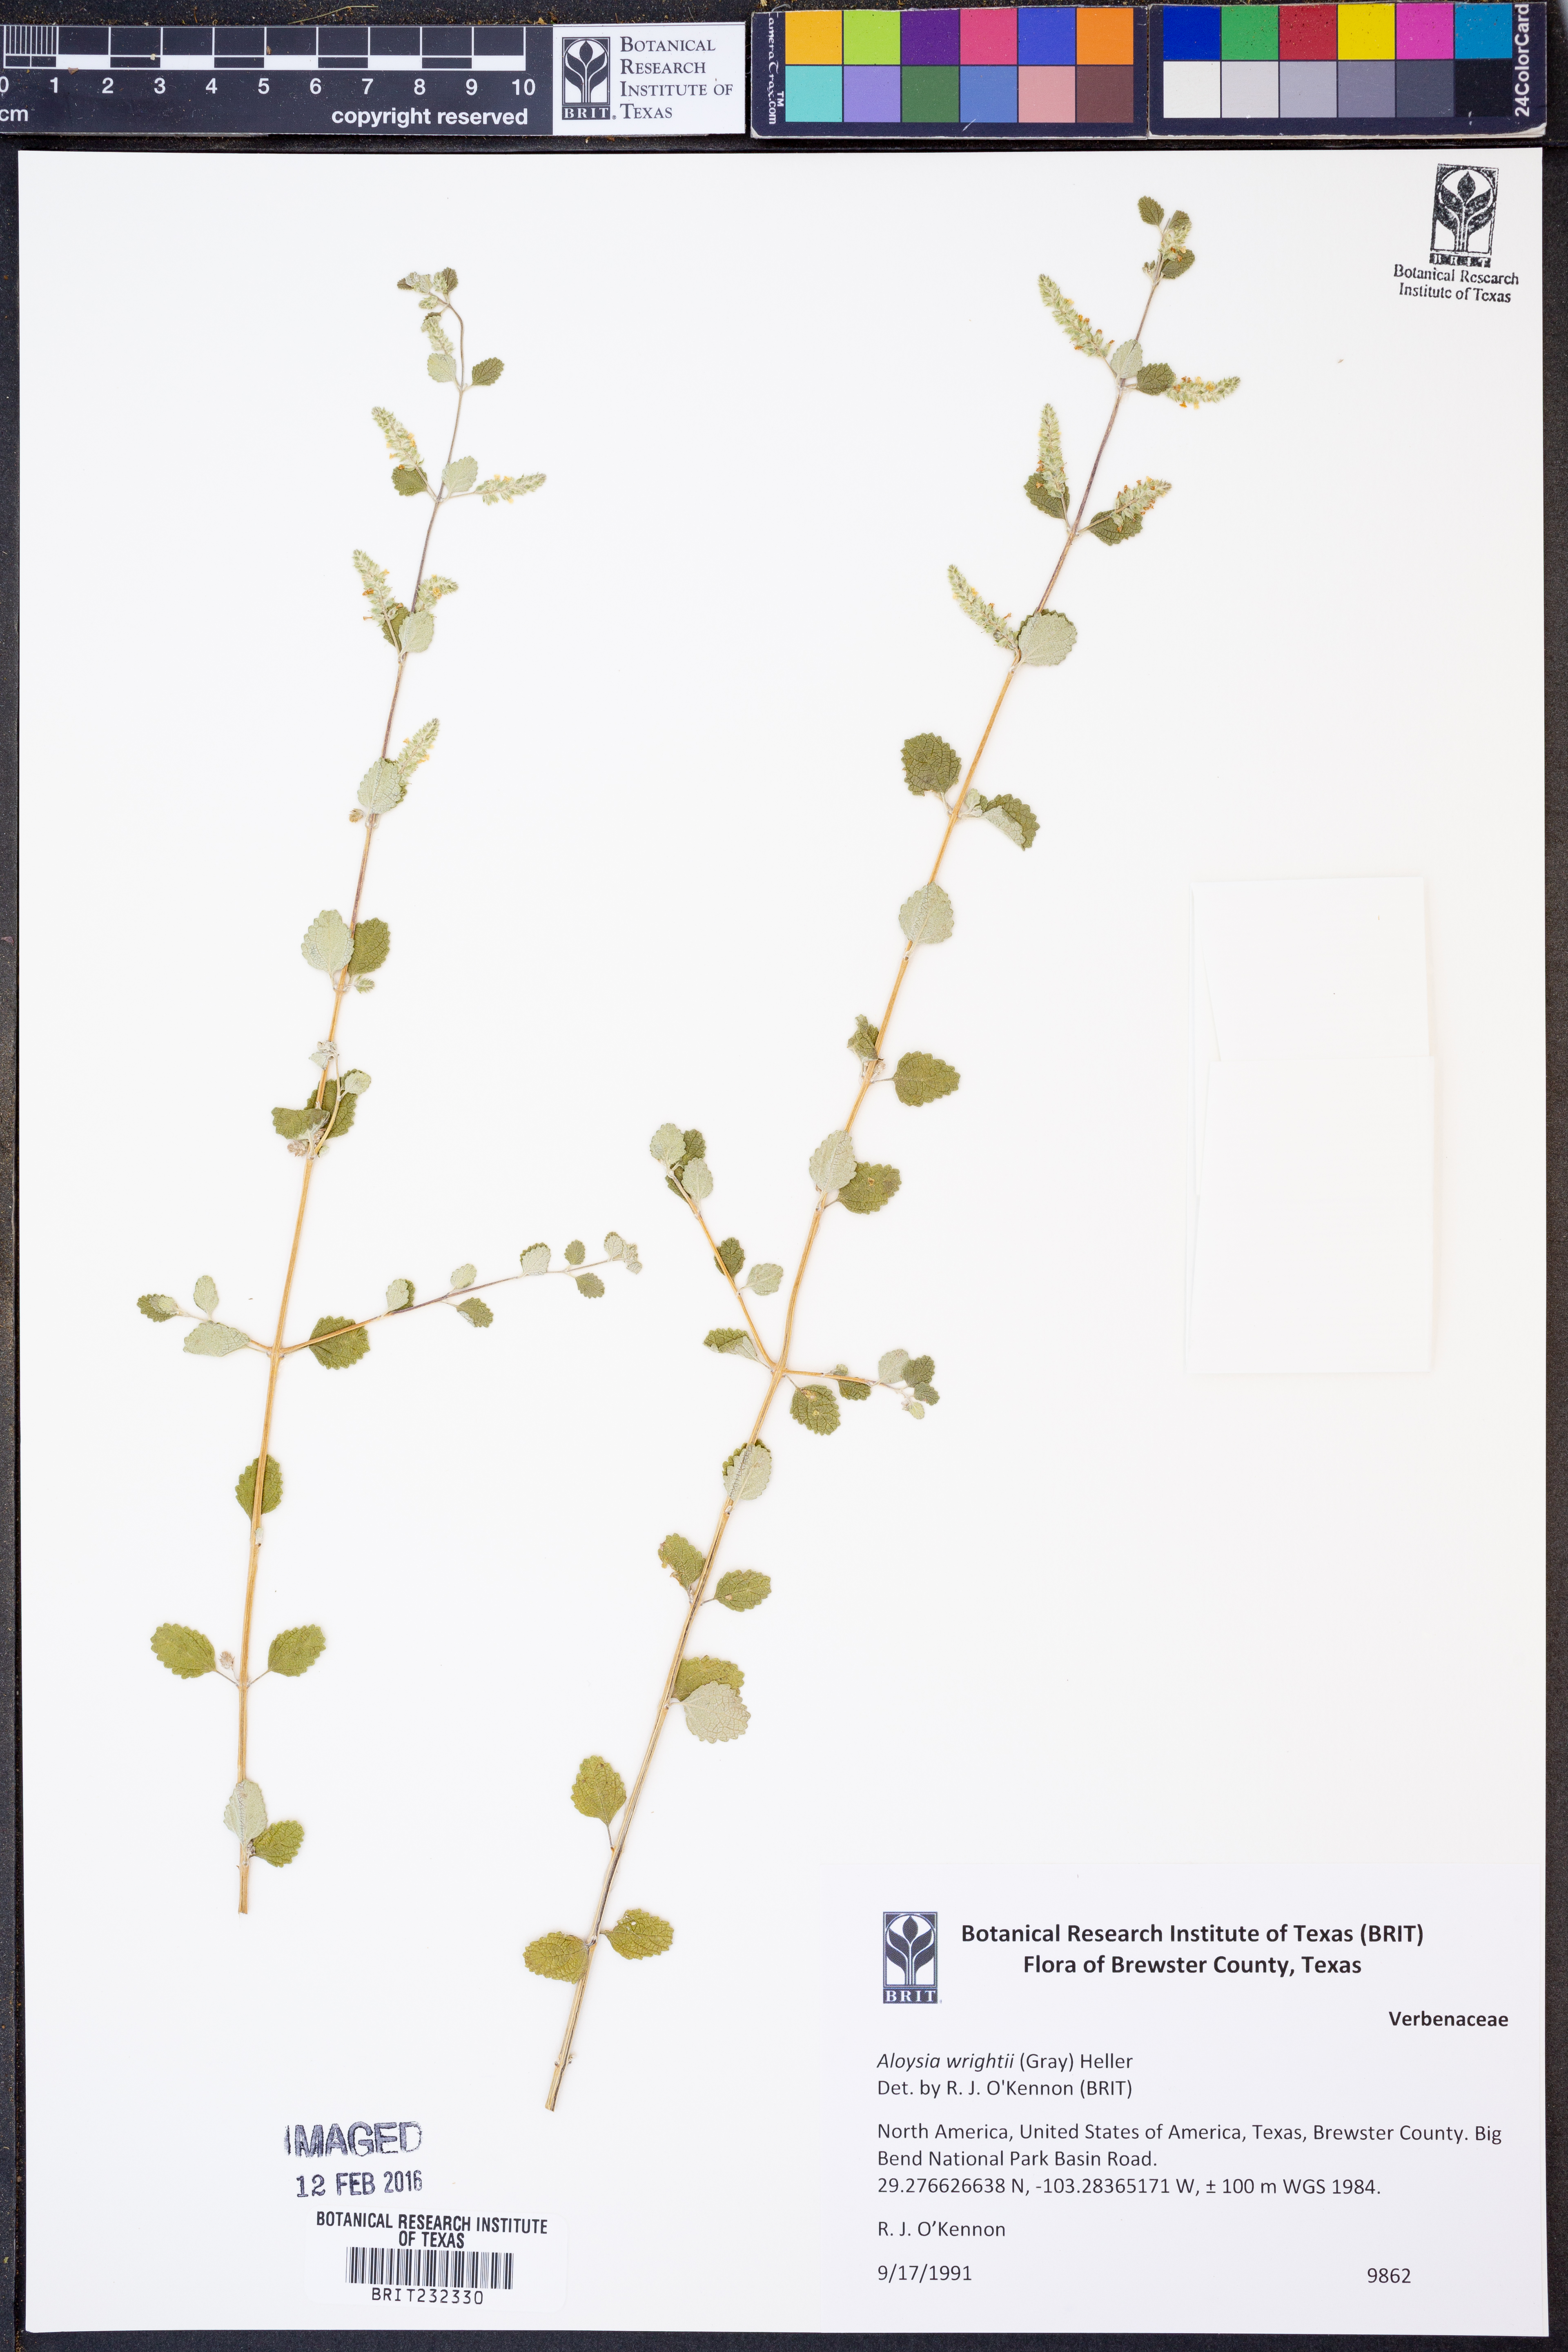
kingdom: Plantae
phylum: Tracheophyta
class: Magnoliopsida
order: Lamiales
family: Verbenaceae
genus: Aloysia
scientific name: Aloysia wrightii
